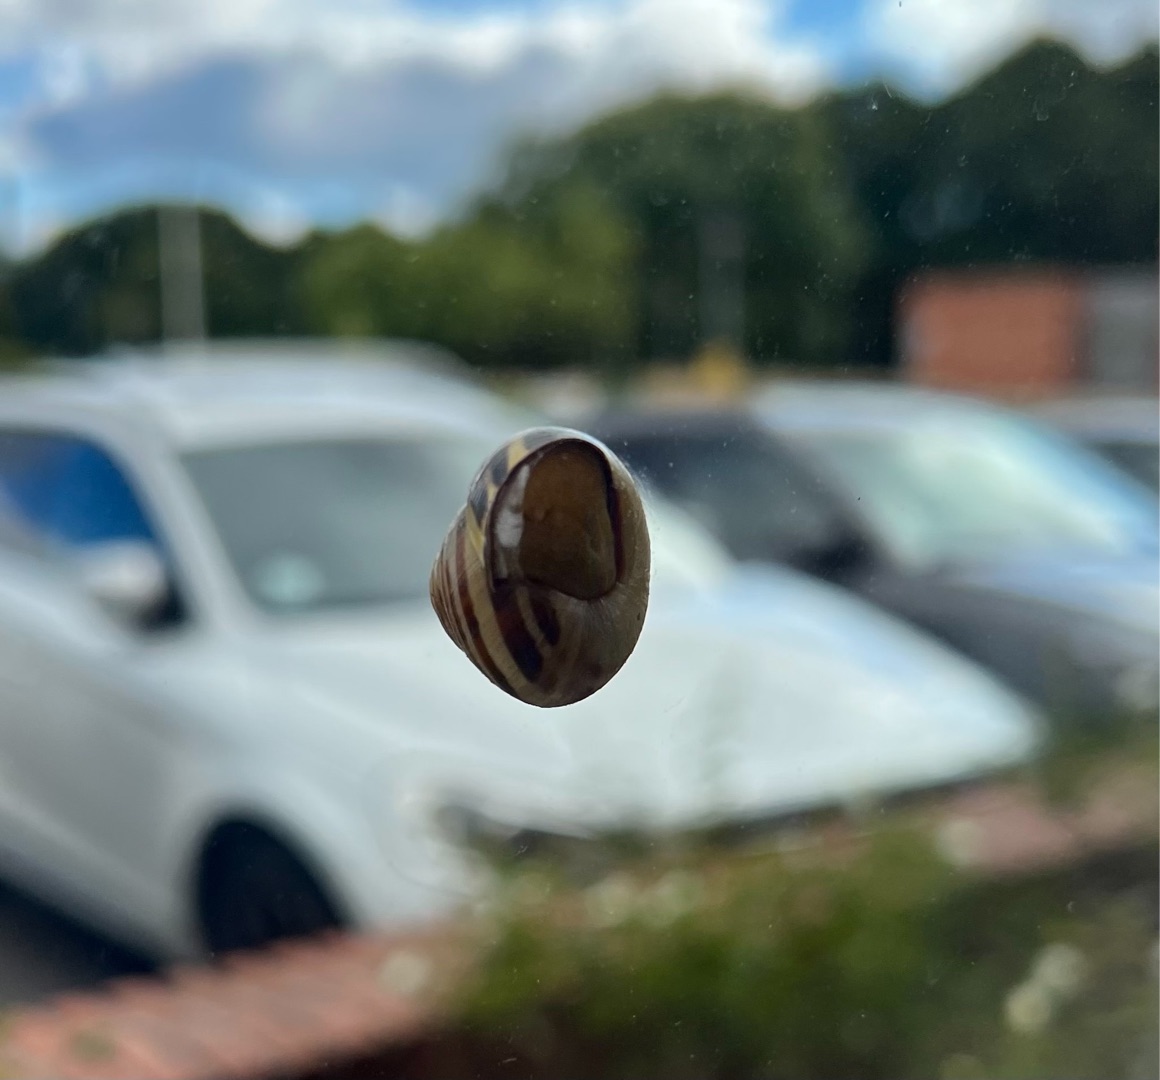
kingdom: Animalia
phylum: Mollusca
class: Gastropoda
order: Stylommatophora
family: Helicidae
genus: Cepaea
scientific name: Cepaea nemoralis
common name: Lundsnegl
